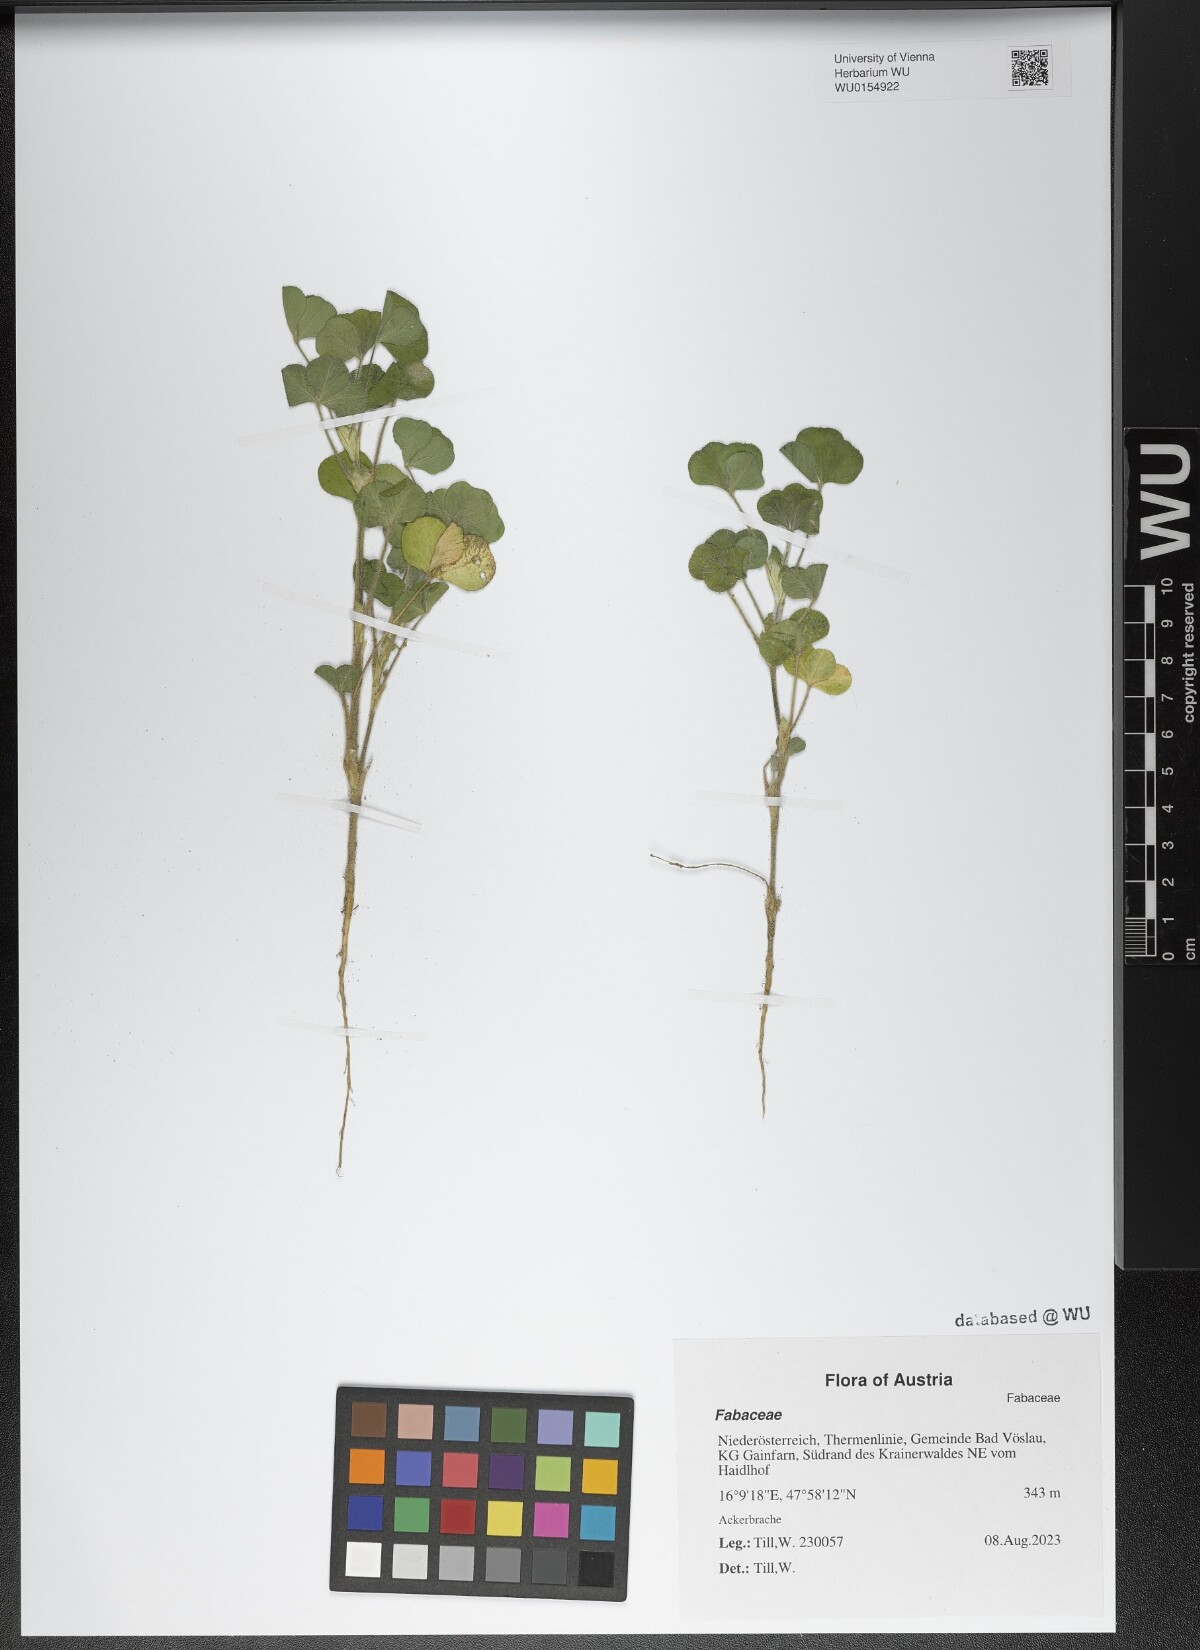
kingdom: Plantae
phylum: Tracheophyta
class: Magnoliopsida
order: Fabales
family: Fabaceae
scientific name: Fabaceae
